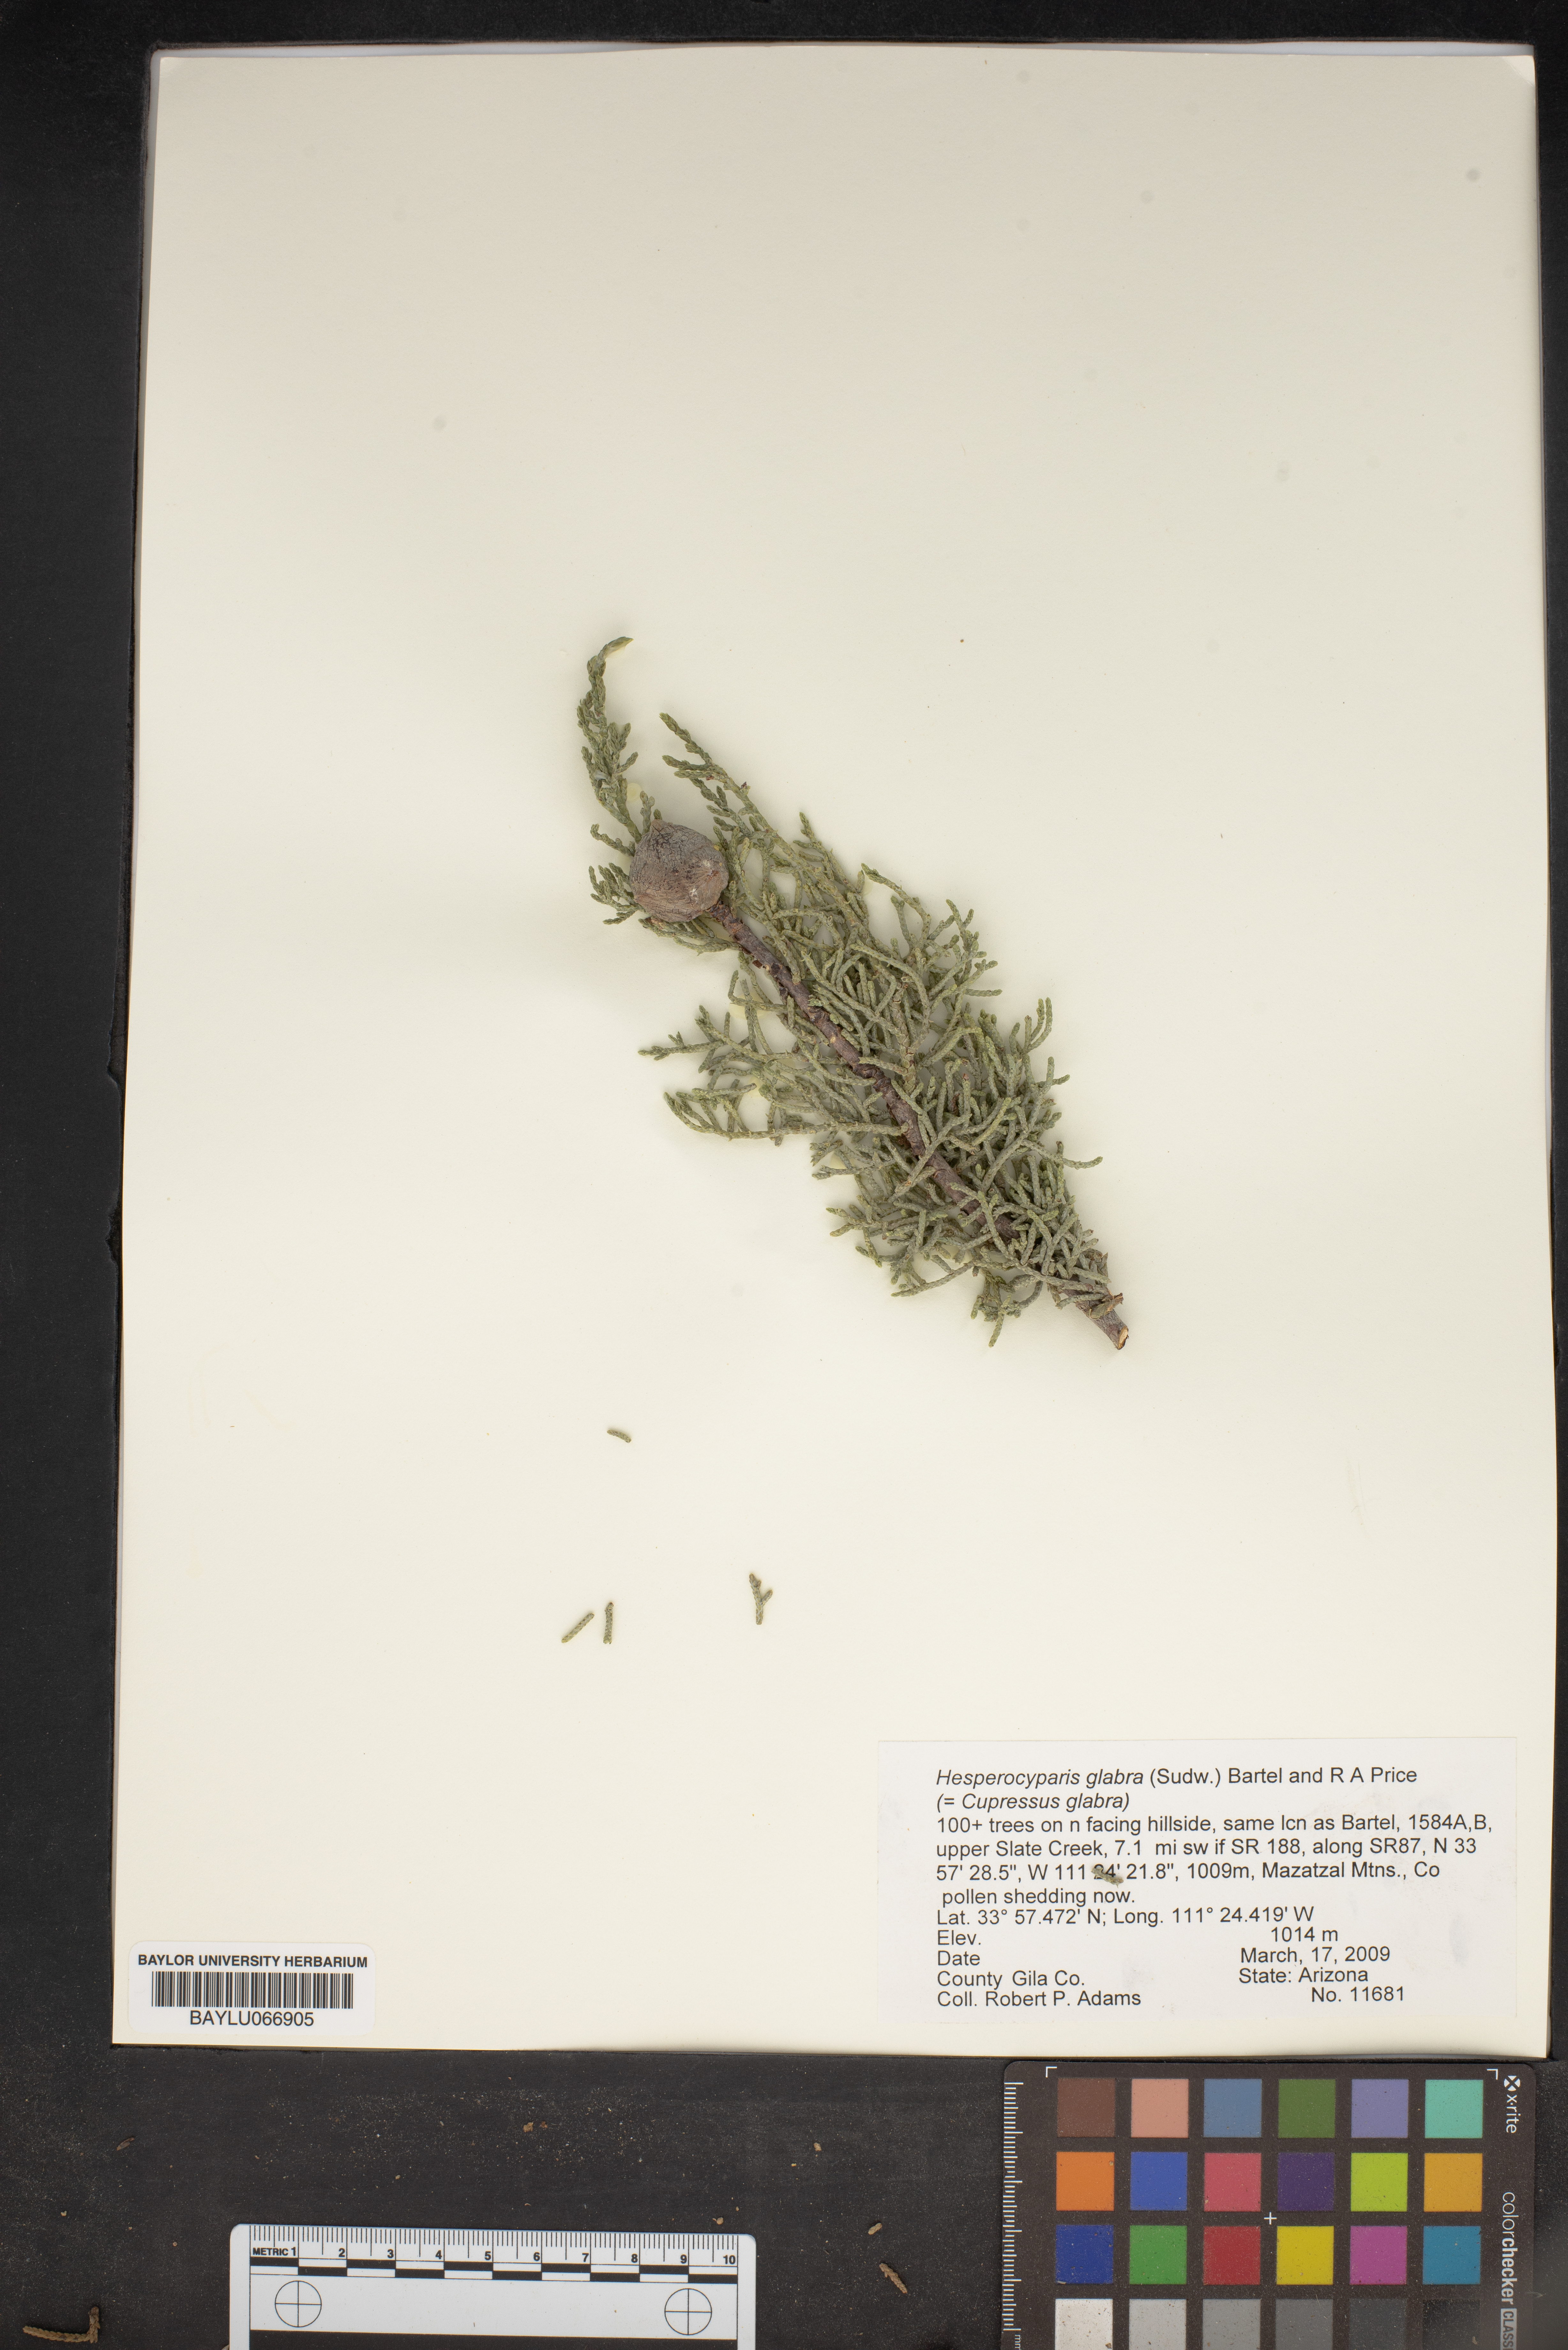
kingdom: Plantae
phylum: Tracheophyta
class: Pinopsida
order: Pinales
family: Cupressaceae
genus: Cupressus
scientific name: Cupressus arizonica
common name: Arizona cypress
